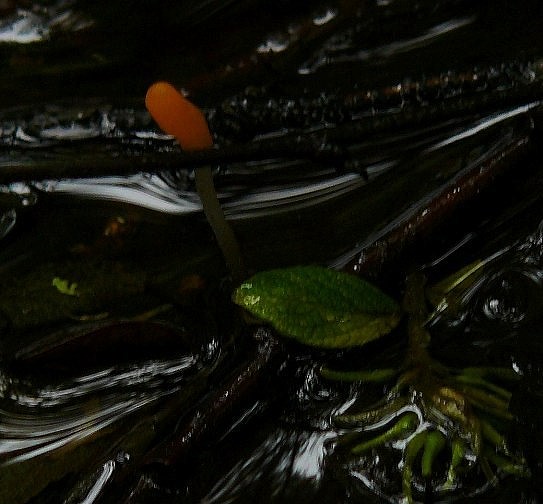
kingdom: Fungi
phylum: Ascomycota
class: Leotiomycetes
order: Helotiales
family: Cenangiaceae
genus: Mitrula
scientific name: Mitrula paludosa
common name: gul nøkketunge
